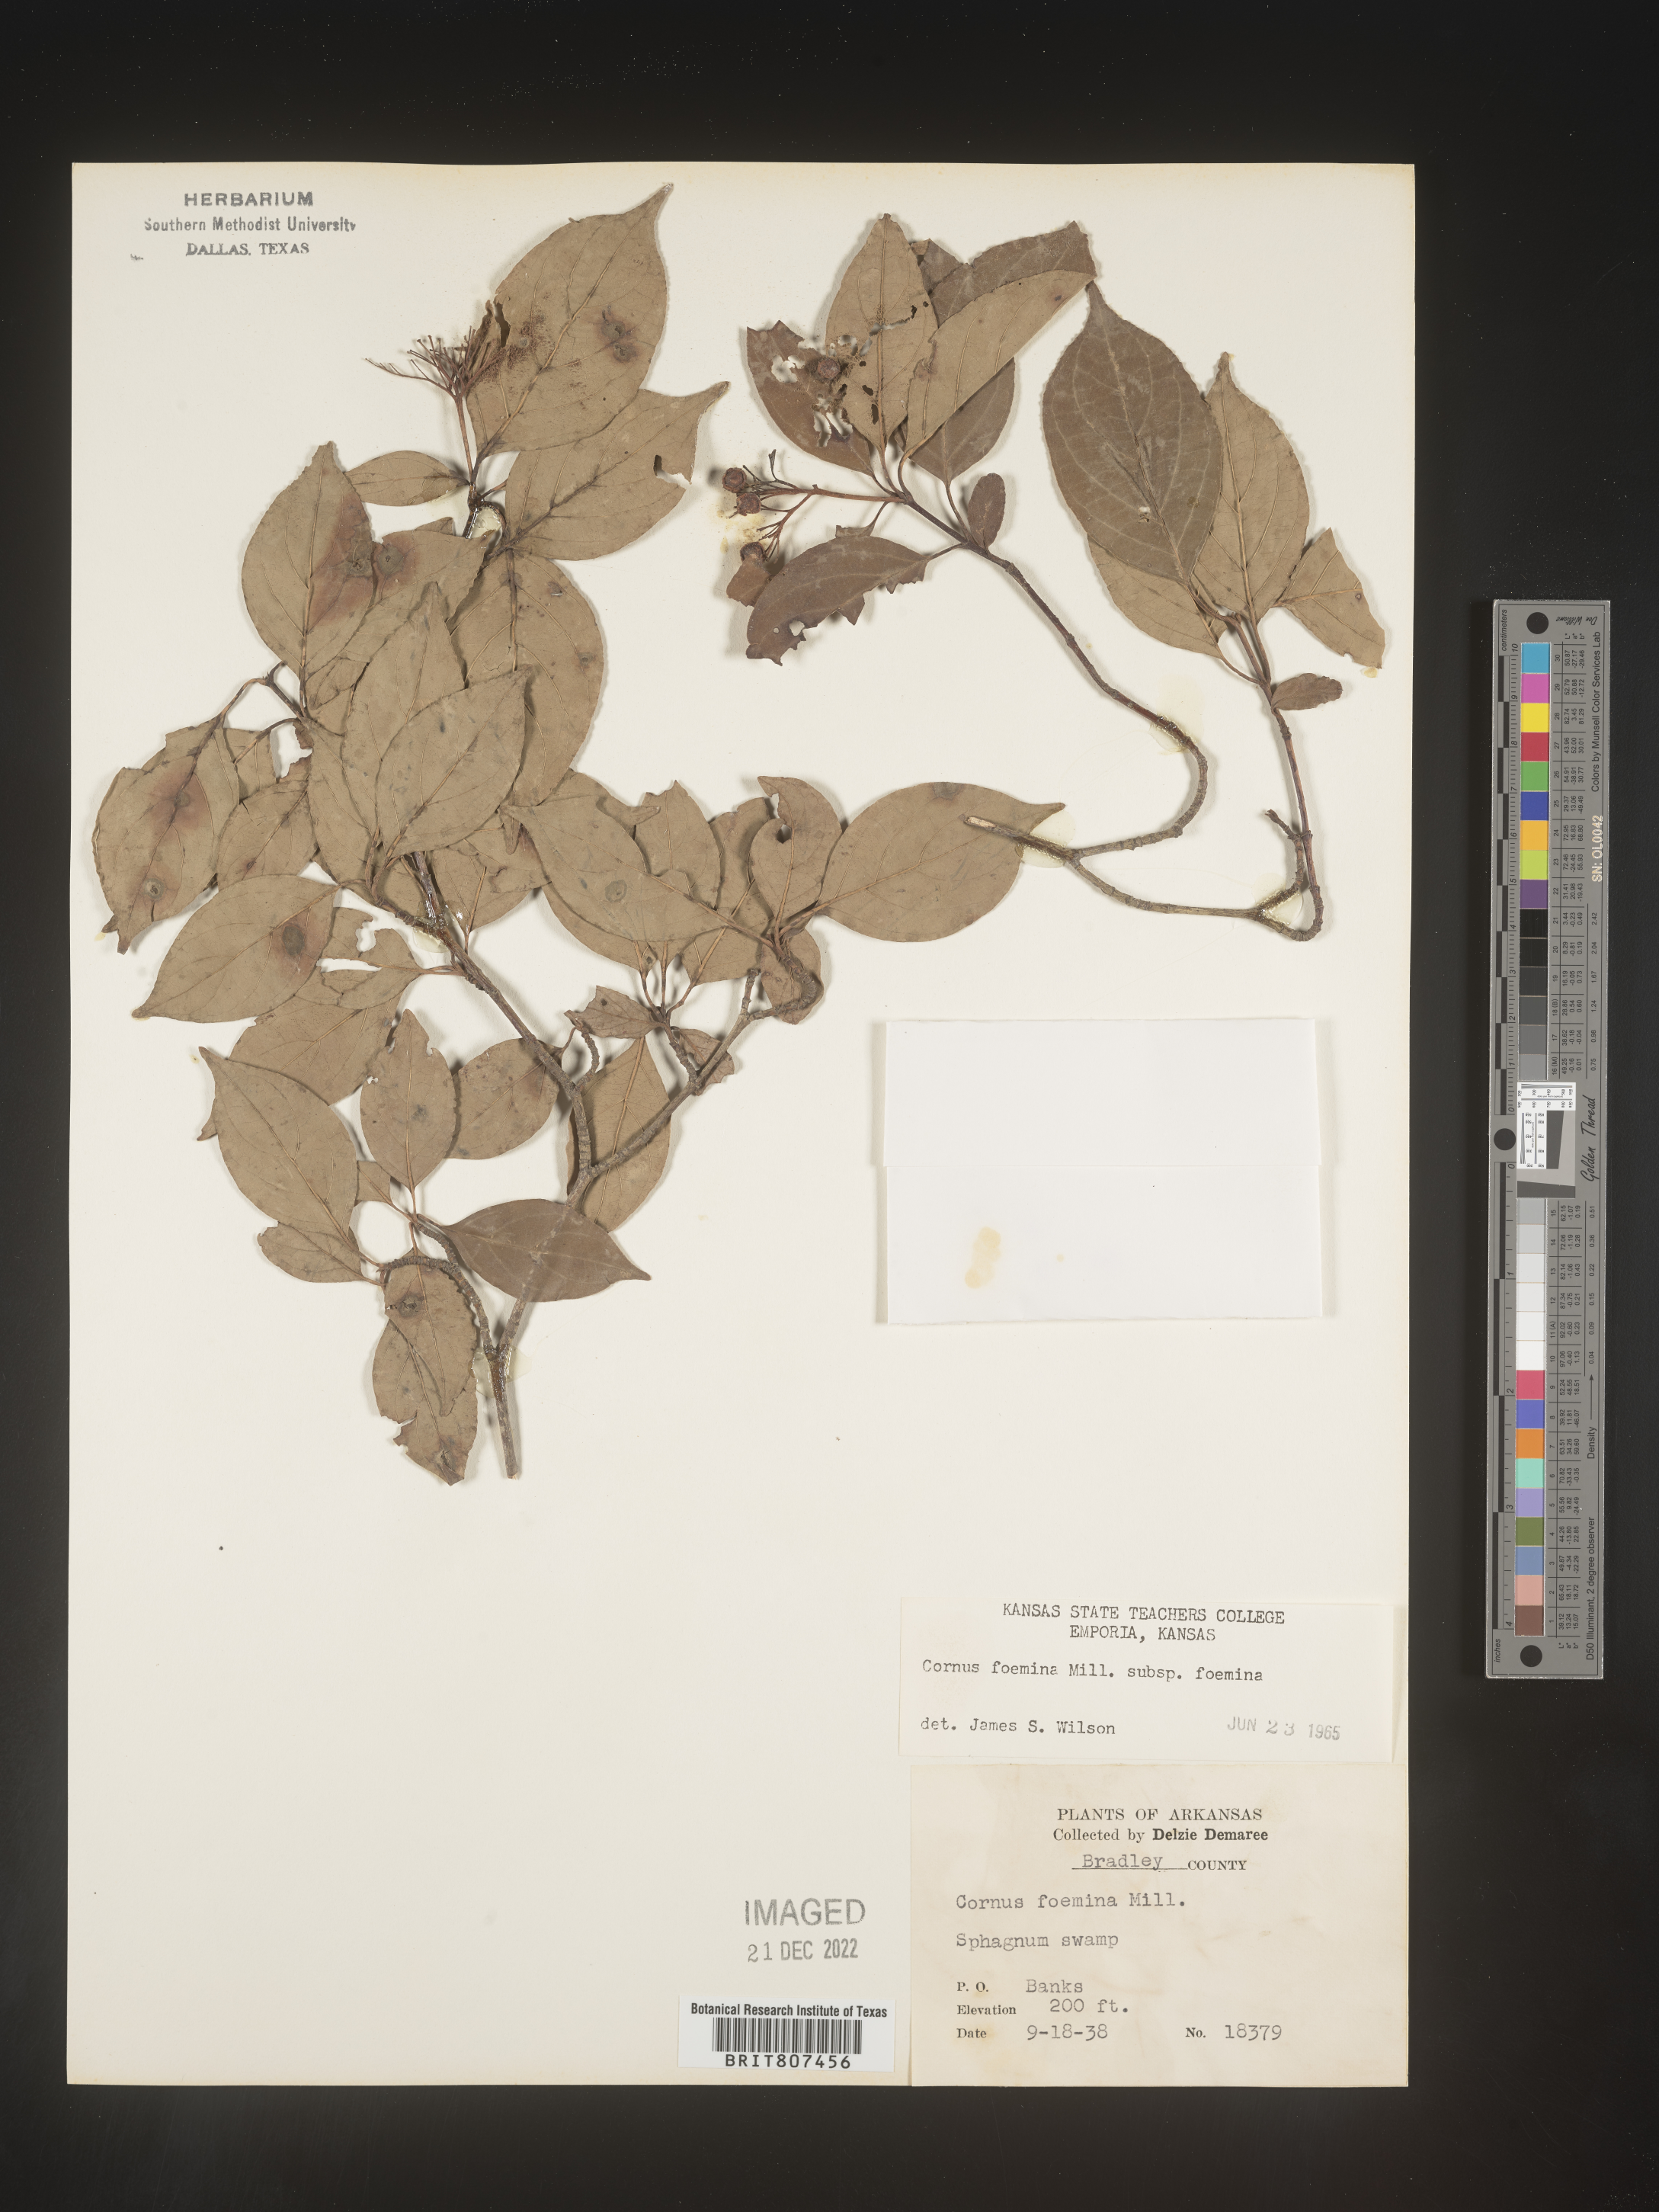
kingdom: Plantae
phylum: Tracheophyta
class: Magnoliopsida
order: Cornales
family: Cornaceae
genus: Cornus
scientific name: Cornus foemina
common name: Swamp dogwood
